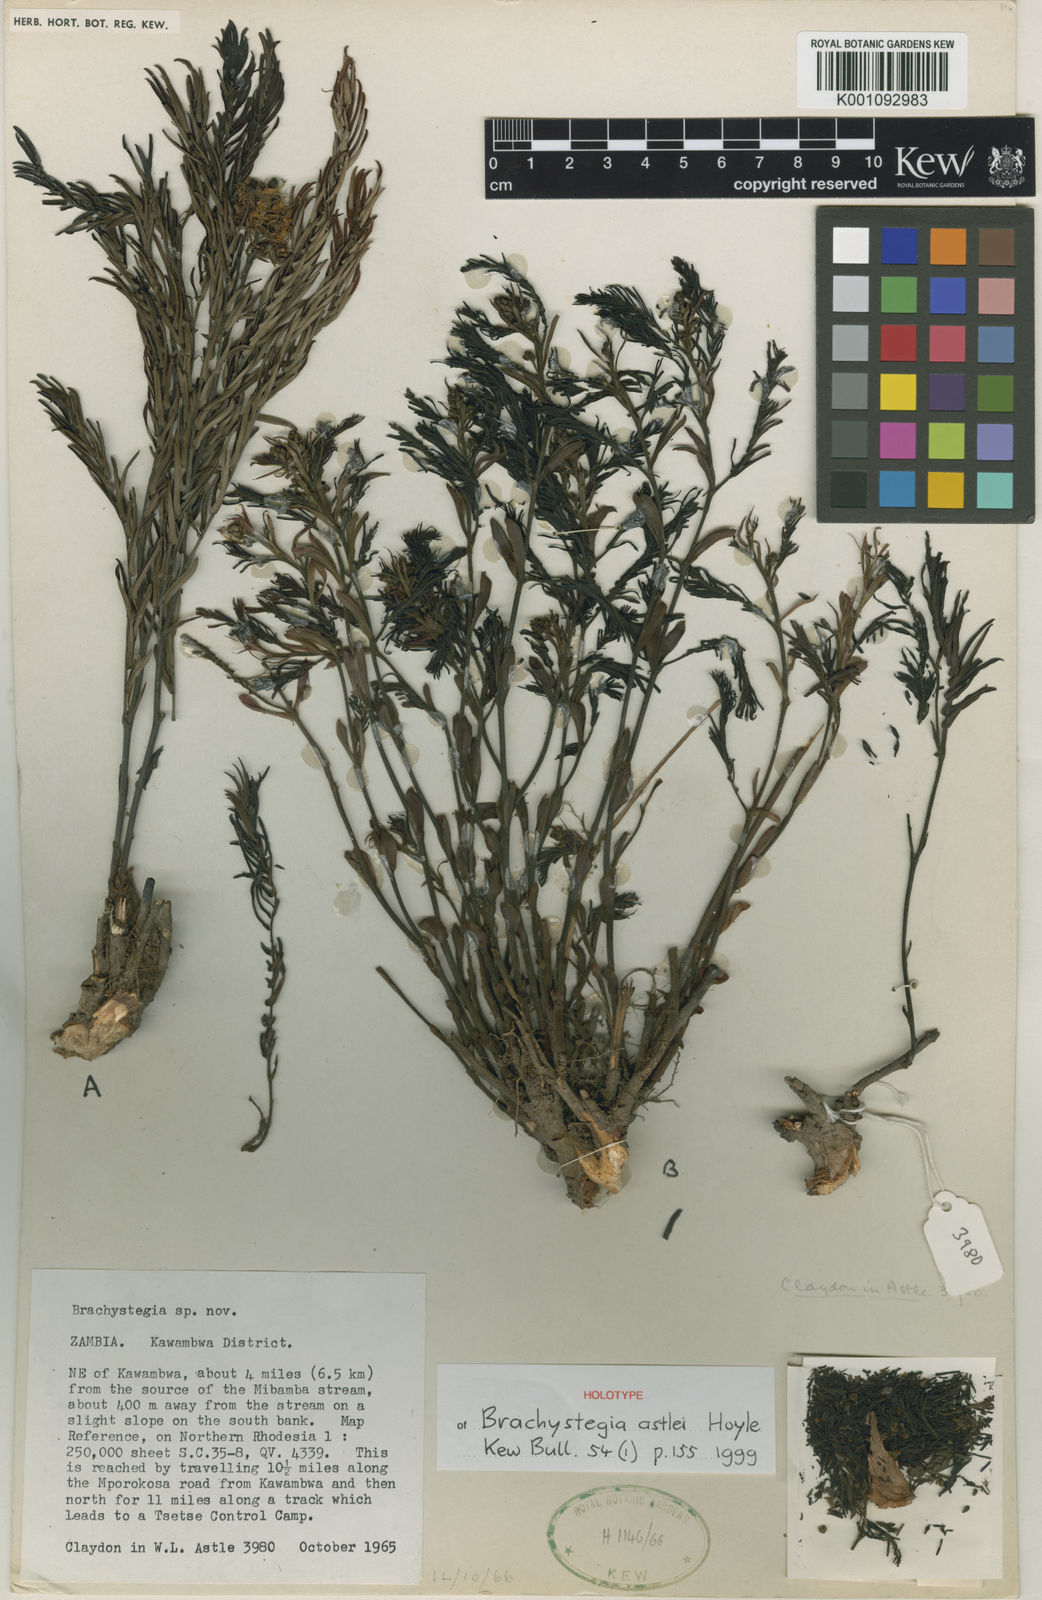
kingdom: Plantae
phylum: Tracheophyta
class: Magnoliopsida
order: Fabales
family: Fabaceae
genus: Brachystegia
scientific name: Brachystegia astlei
